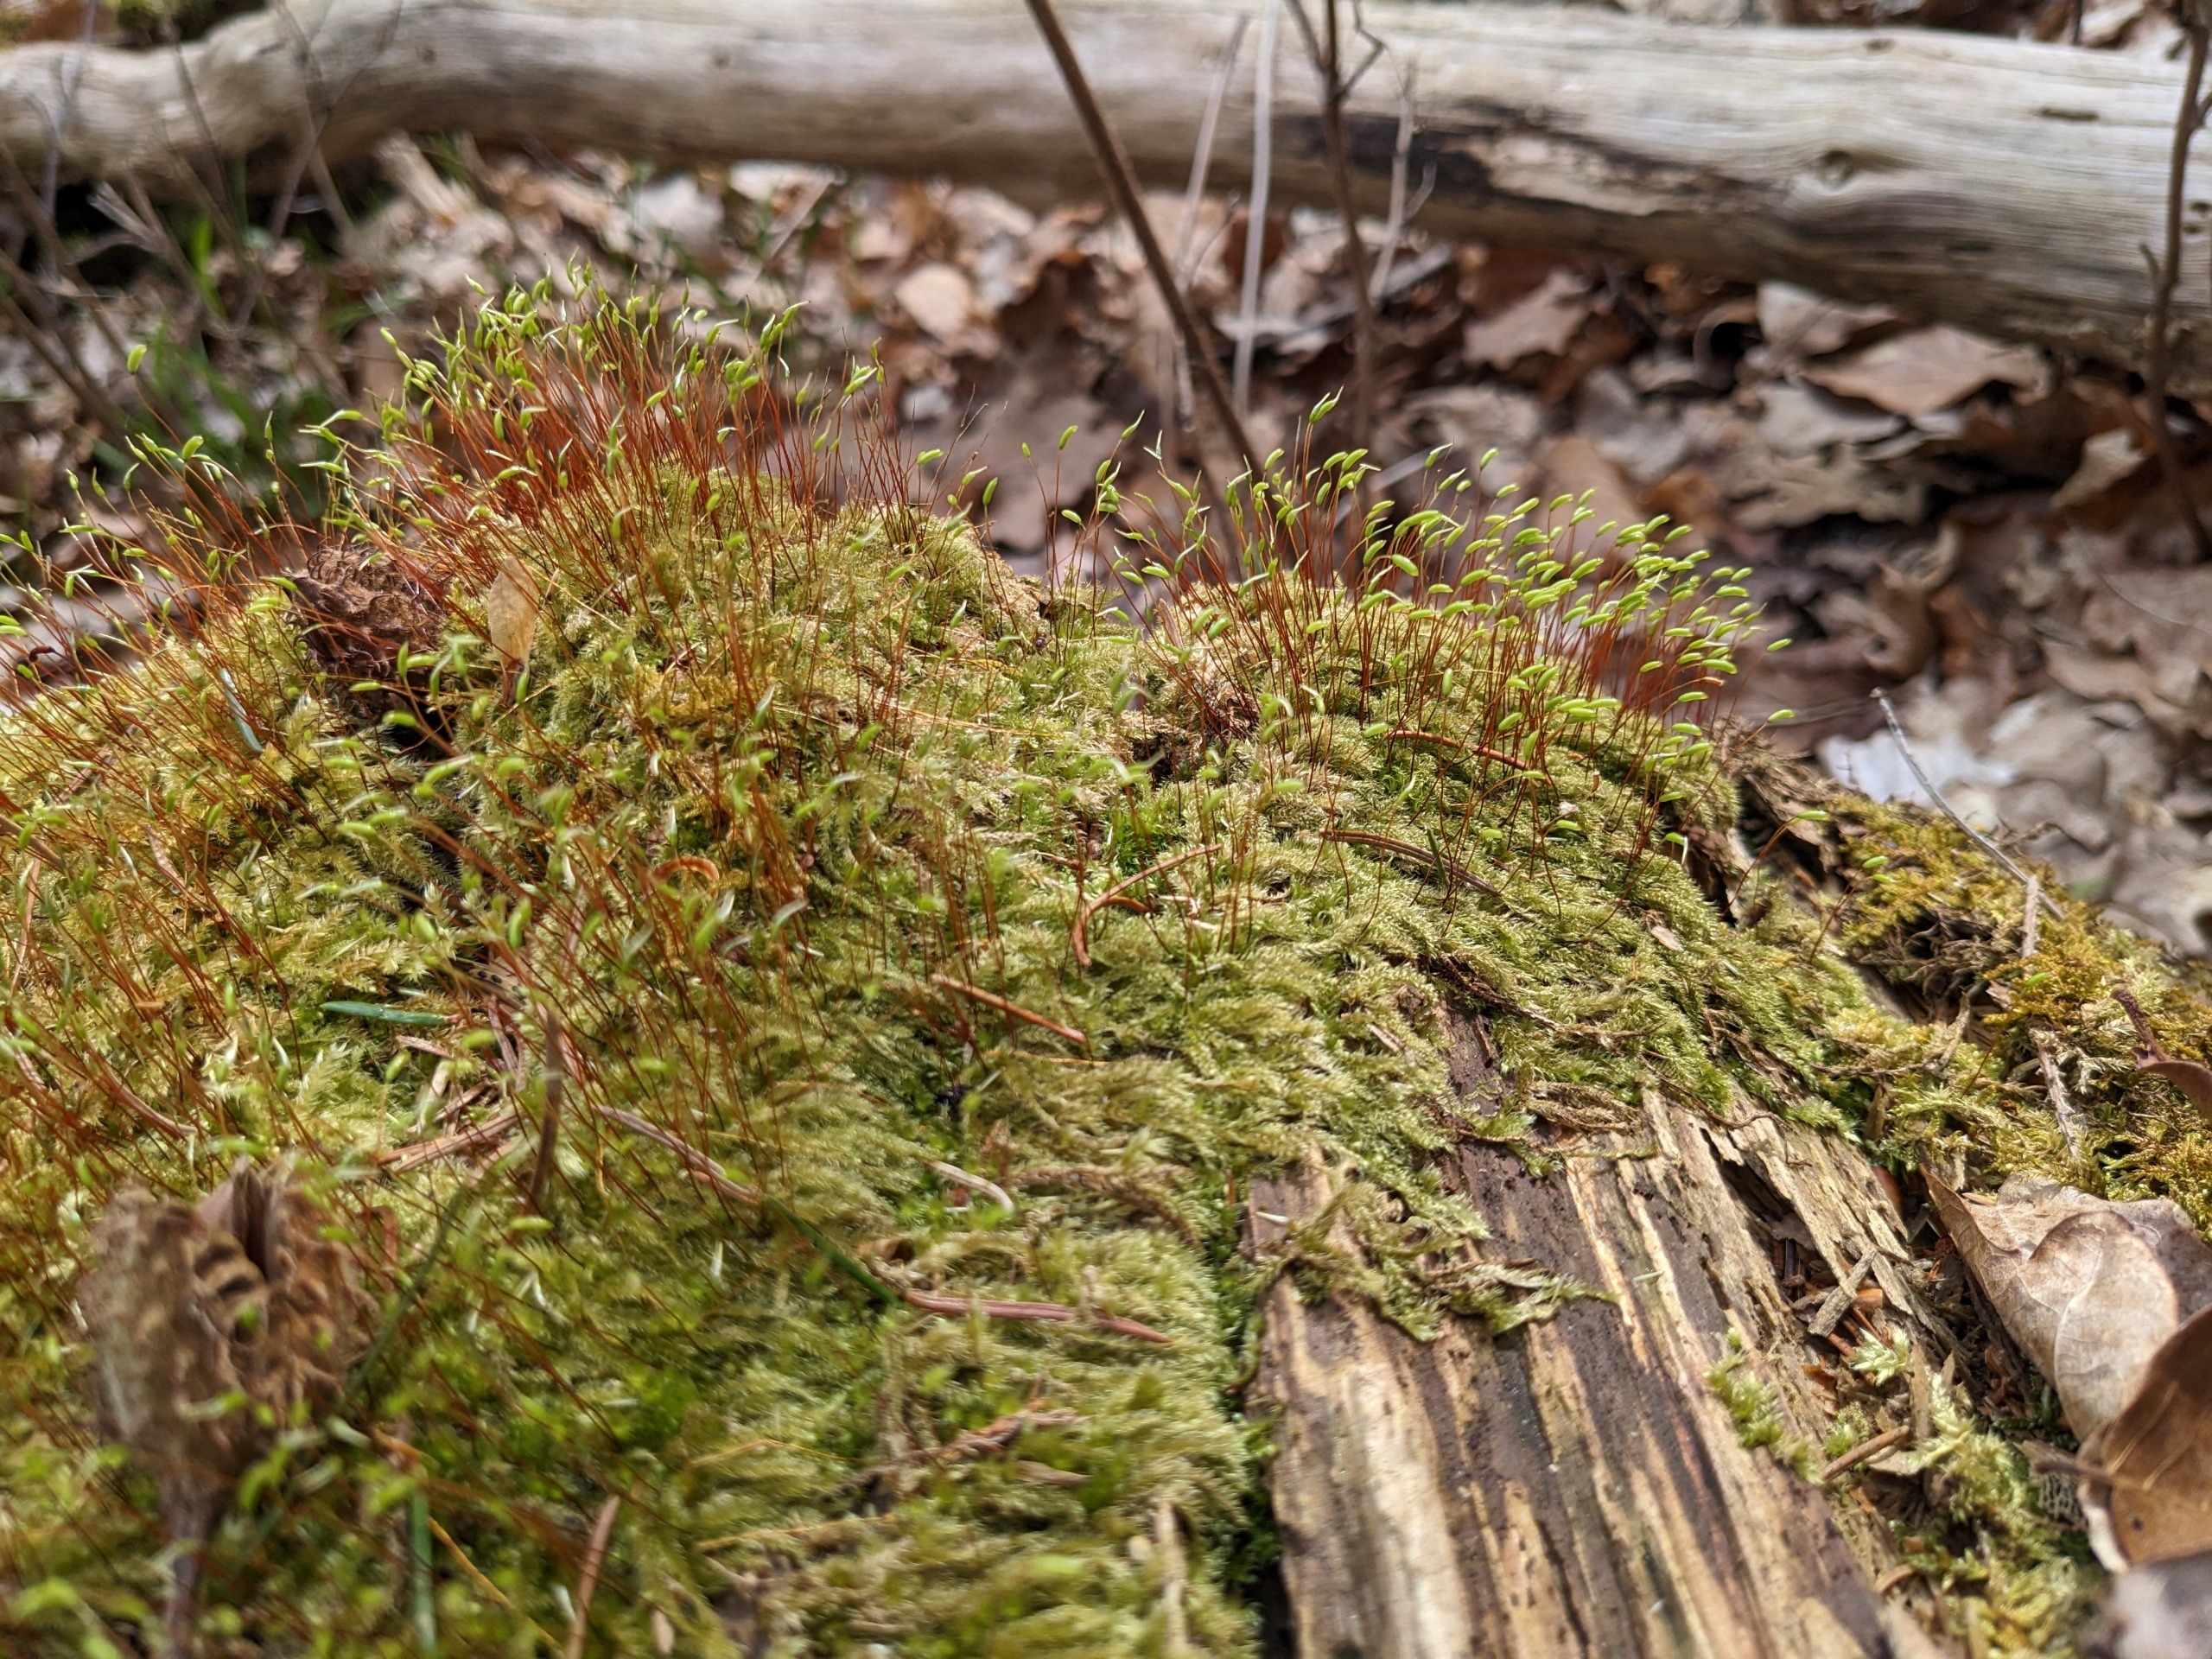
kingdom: Plantae
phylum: Bryophyta
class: Bryopsida
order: Hypnales
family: Plagiotheciaceae
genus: Herzogiella
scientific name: Herzogiella seligeri
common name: Stub-pølsekapsel
